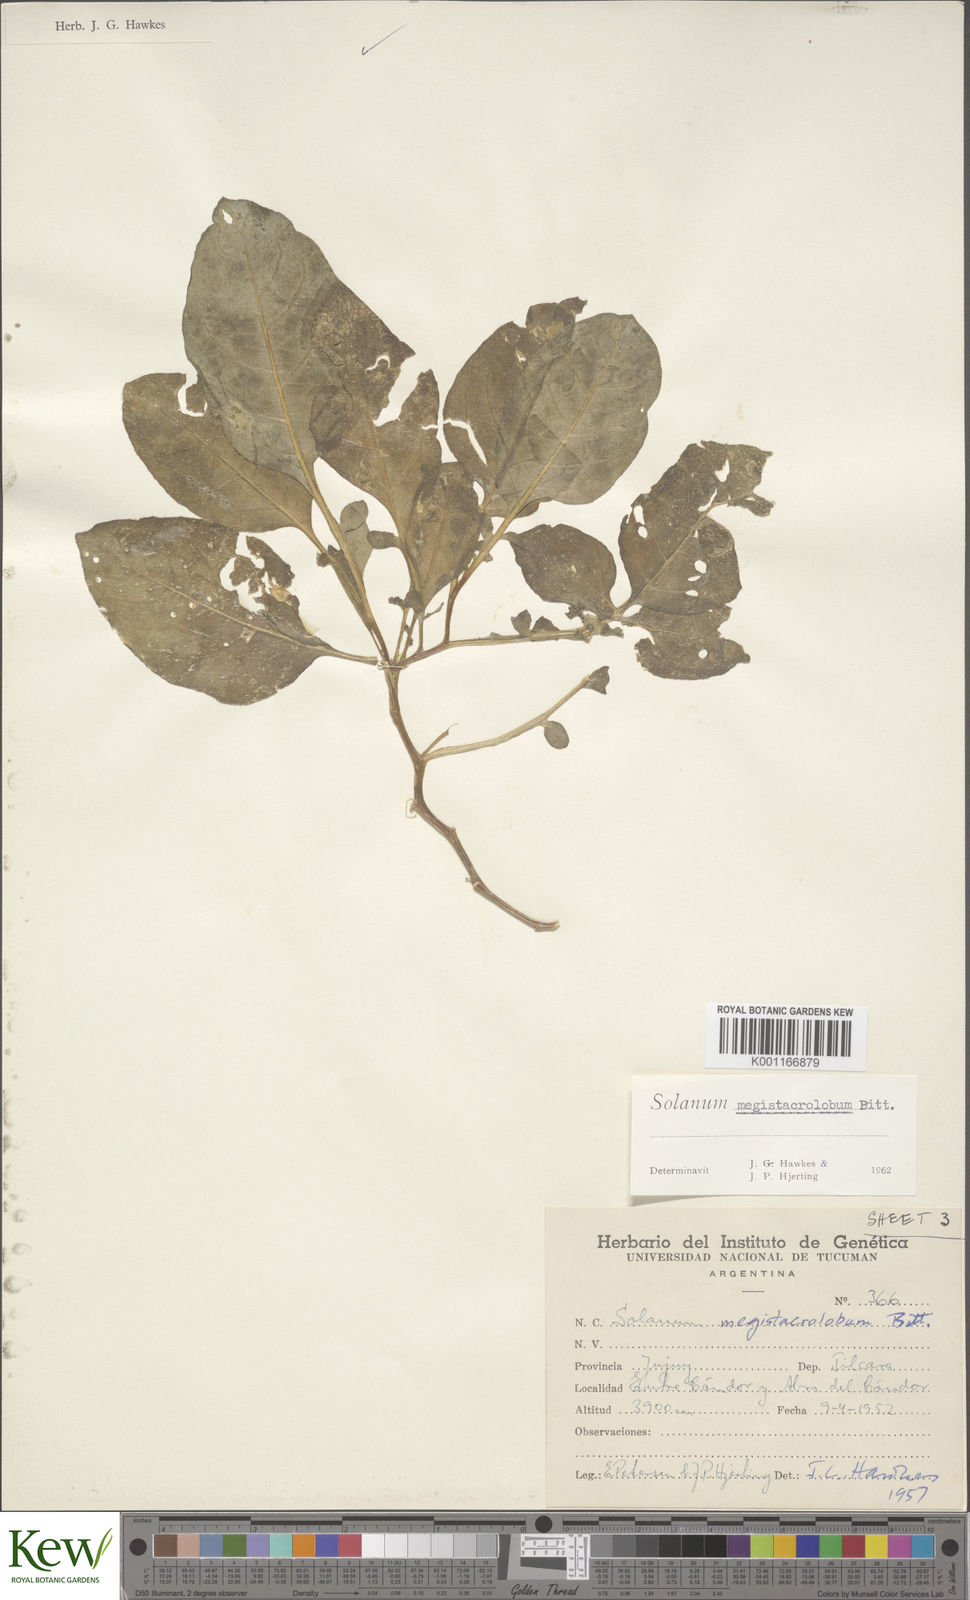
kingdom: Plantae
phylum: Tracheophyta
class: Magnoliopsida
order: Solanales
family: Solanaceae
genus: Solanum
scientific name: Solanum boliviense
